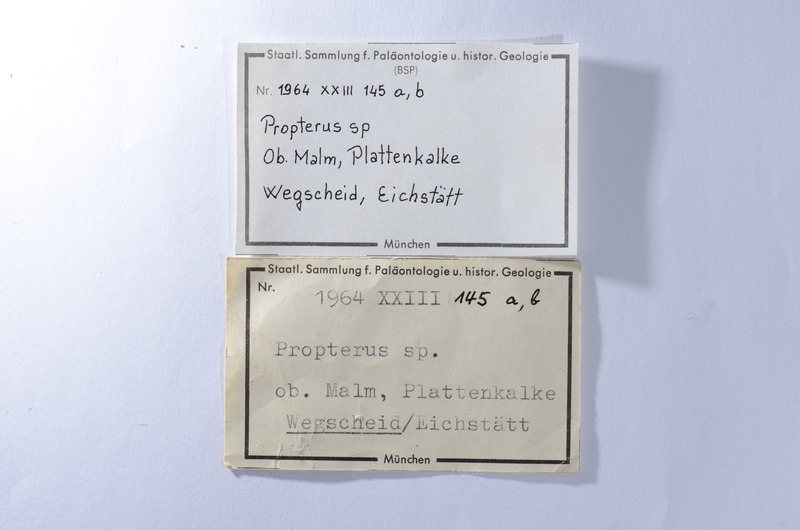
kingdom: Animalia
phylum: Chordata
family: Macrosemiidae
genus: Propterus
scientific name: Propterus
